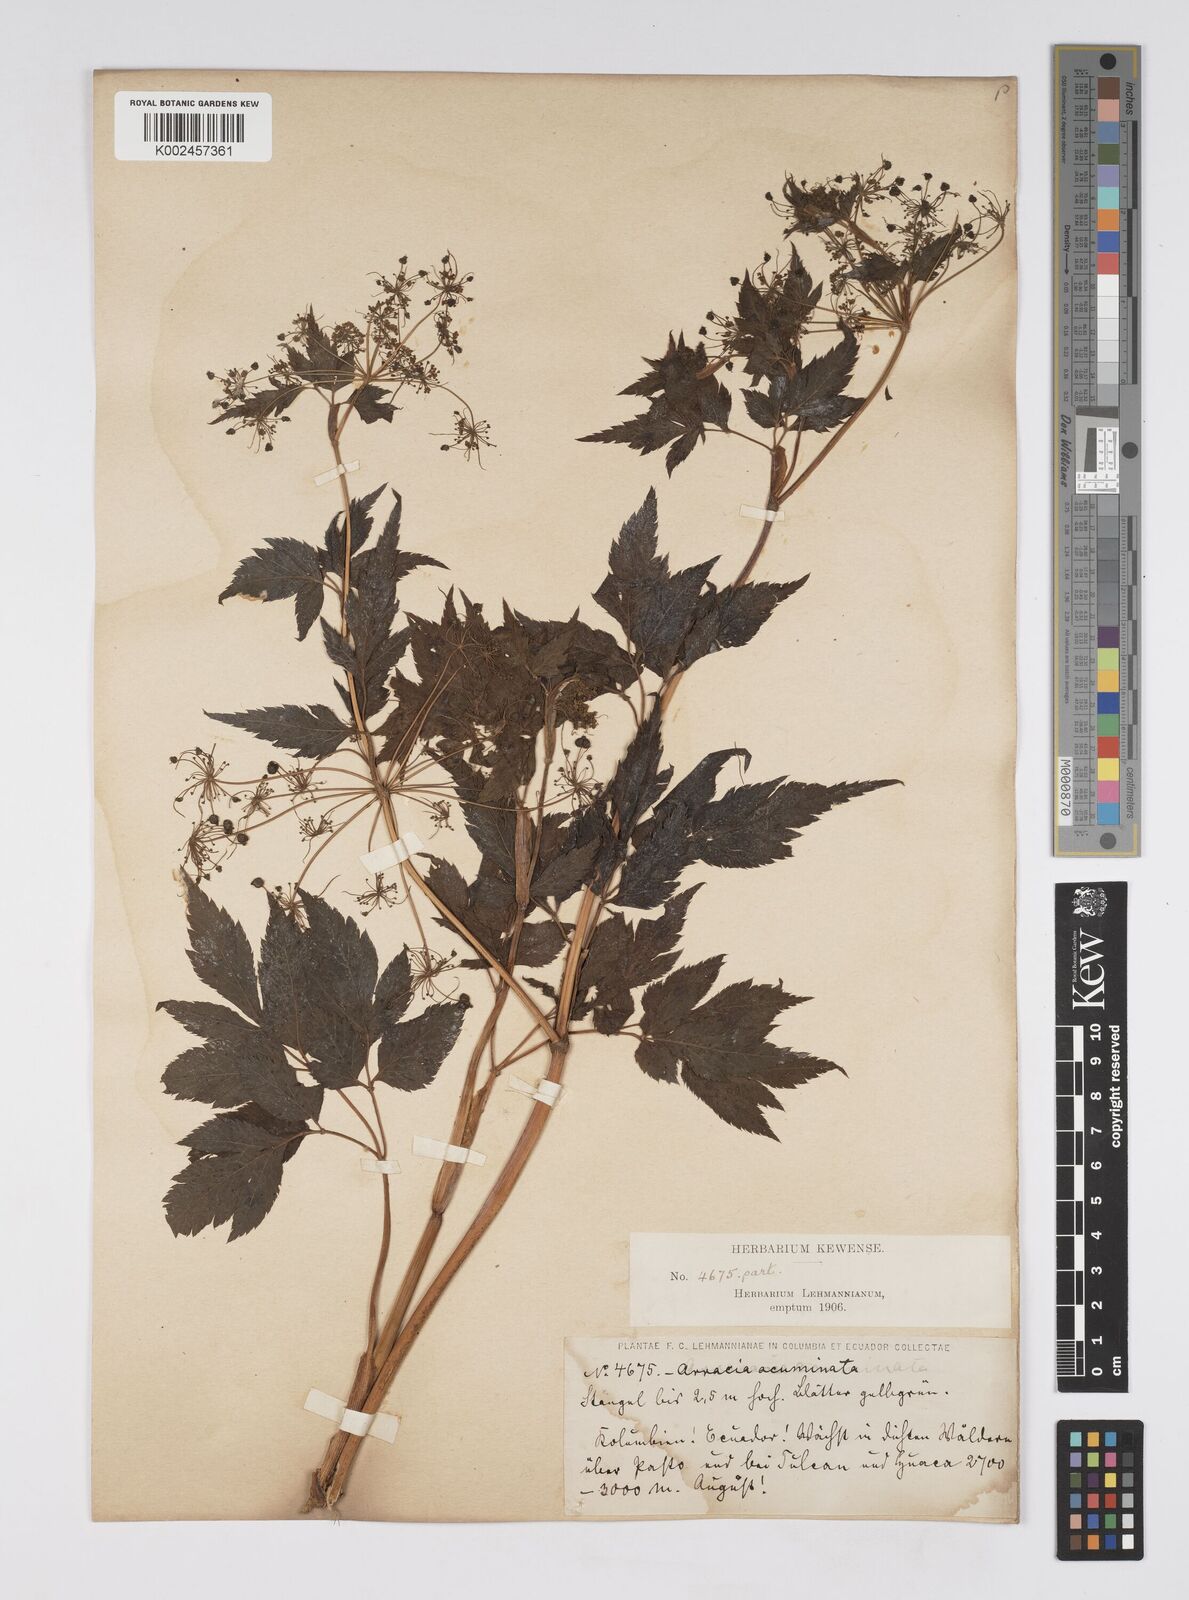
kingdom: Plantae
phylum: Tracheophyta
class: Magnoliopsida
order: Apiales
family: Apiaceae
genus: Neonelsonia
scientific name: Neonelsonia acuminata
